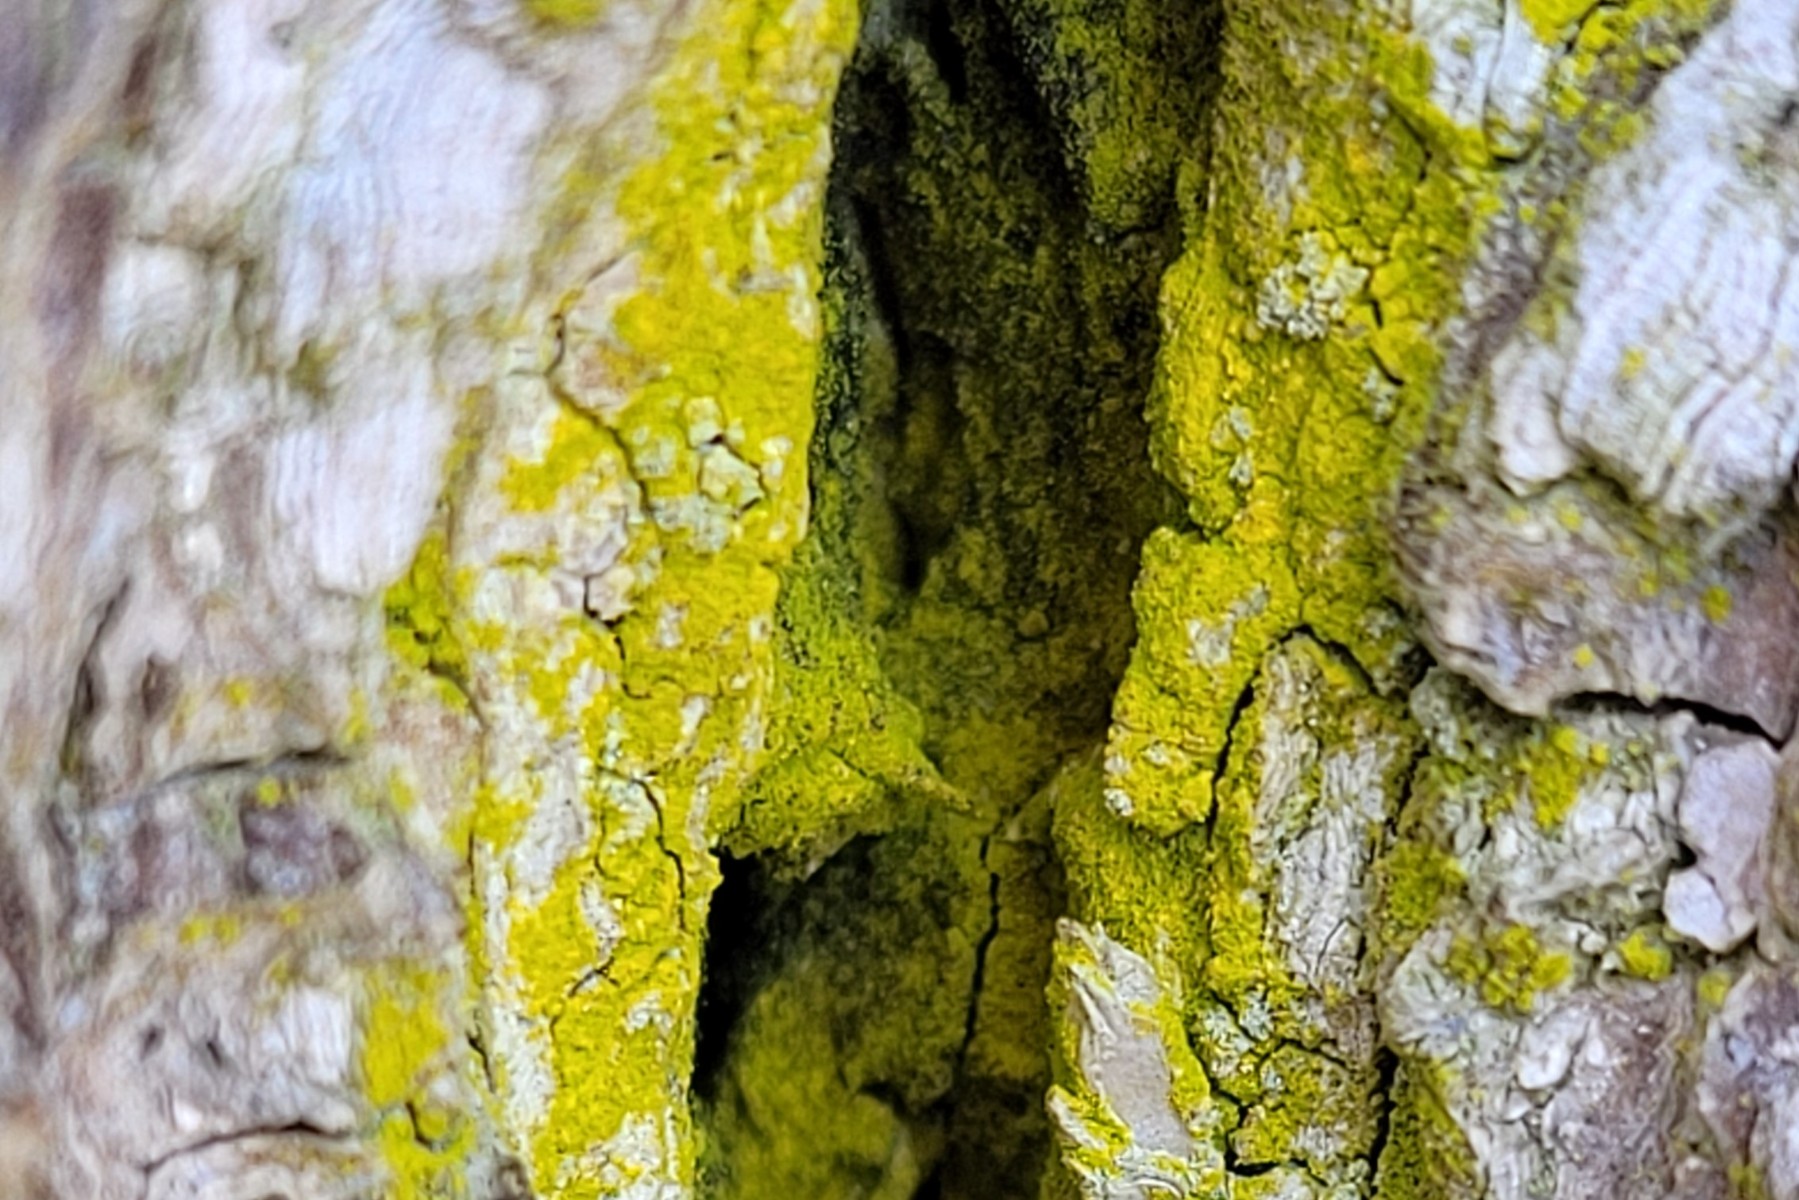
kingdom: Fungi
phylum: Ascomycota
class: Arthoniomycetes
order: Arthoniales
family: Chrysotrichaceae
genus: Chrysothrix
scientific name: Chrysothrix candelaris
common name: gul støvlav
